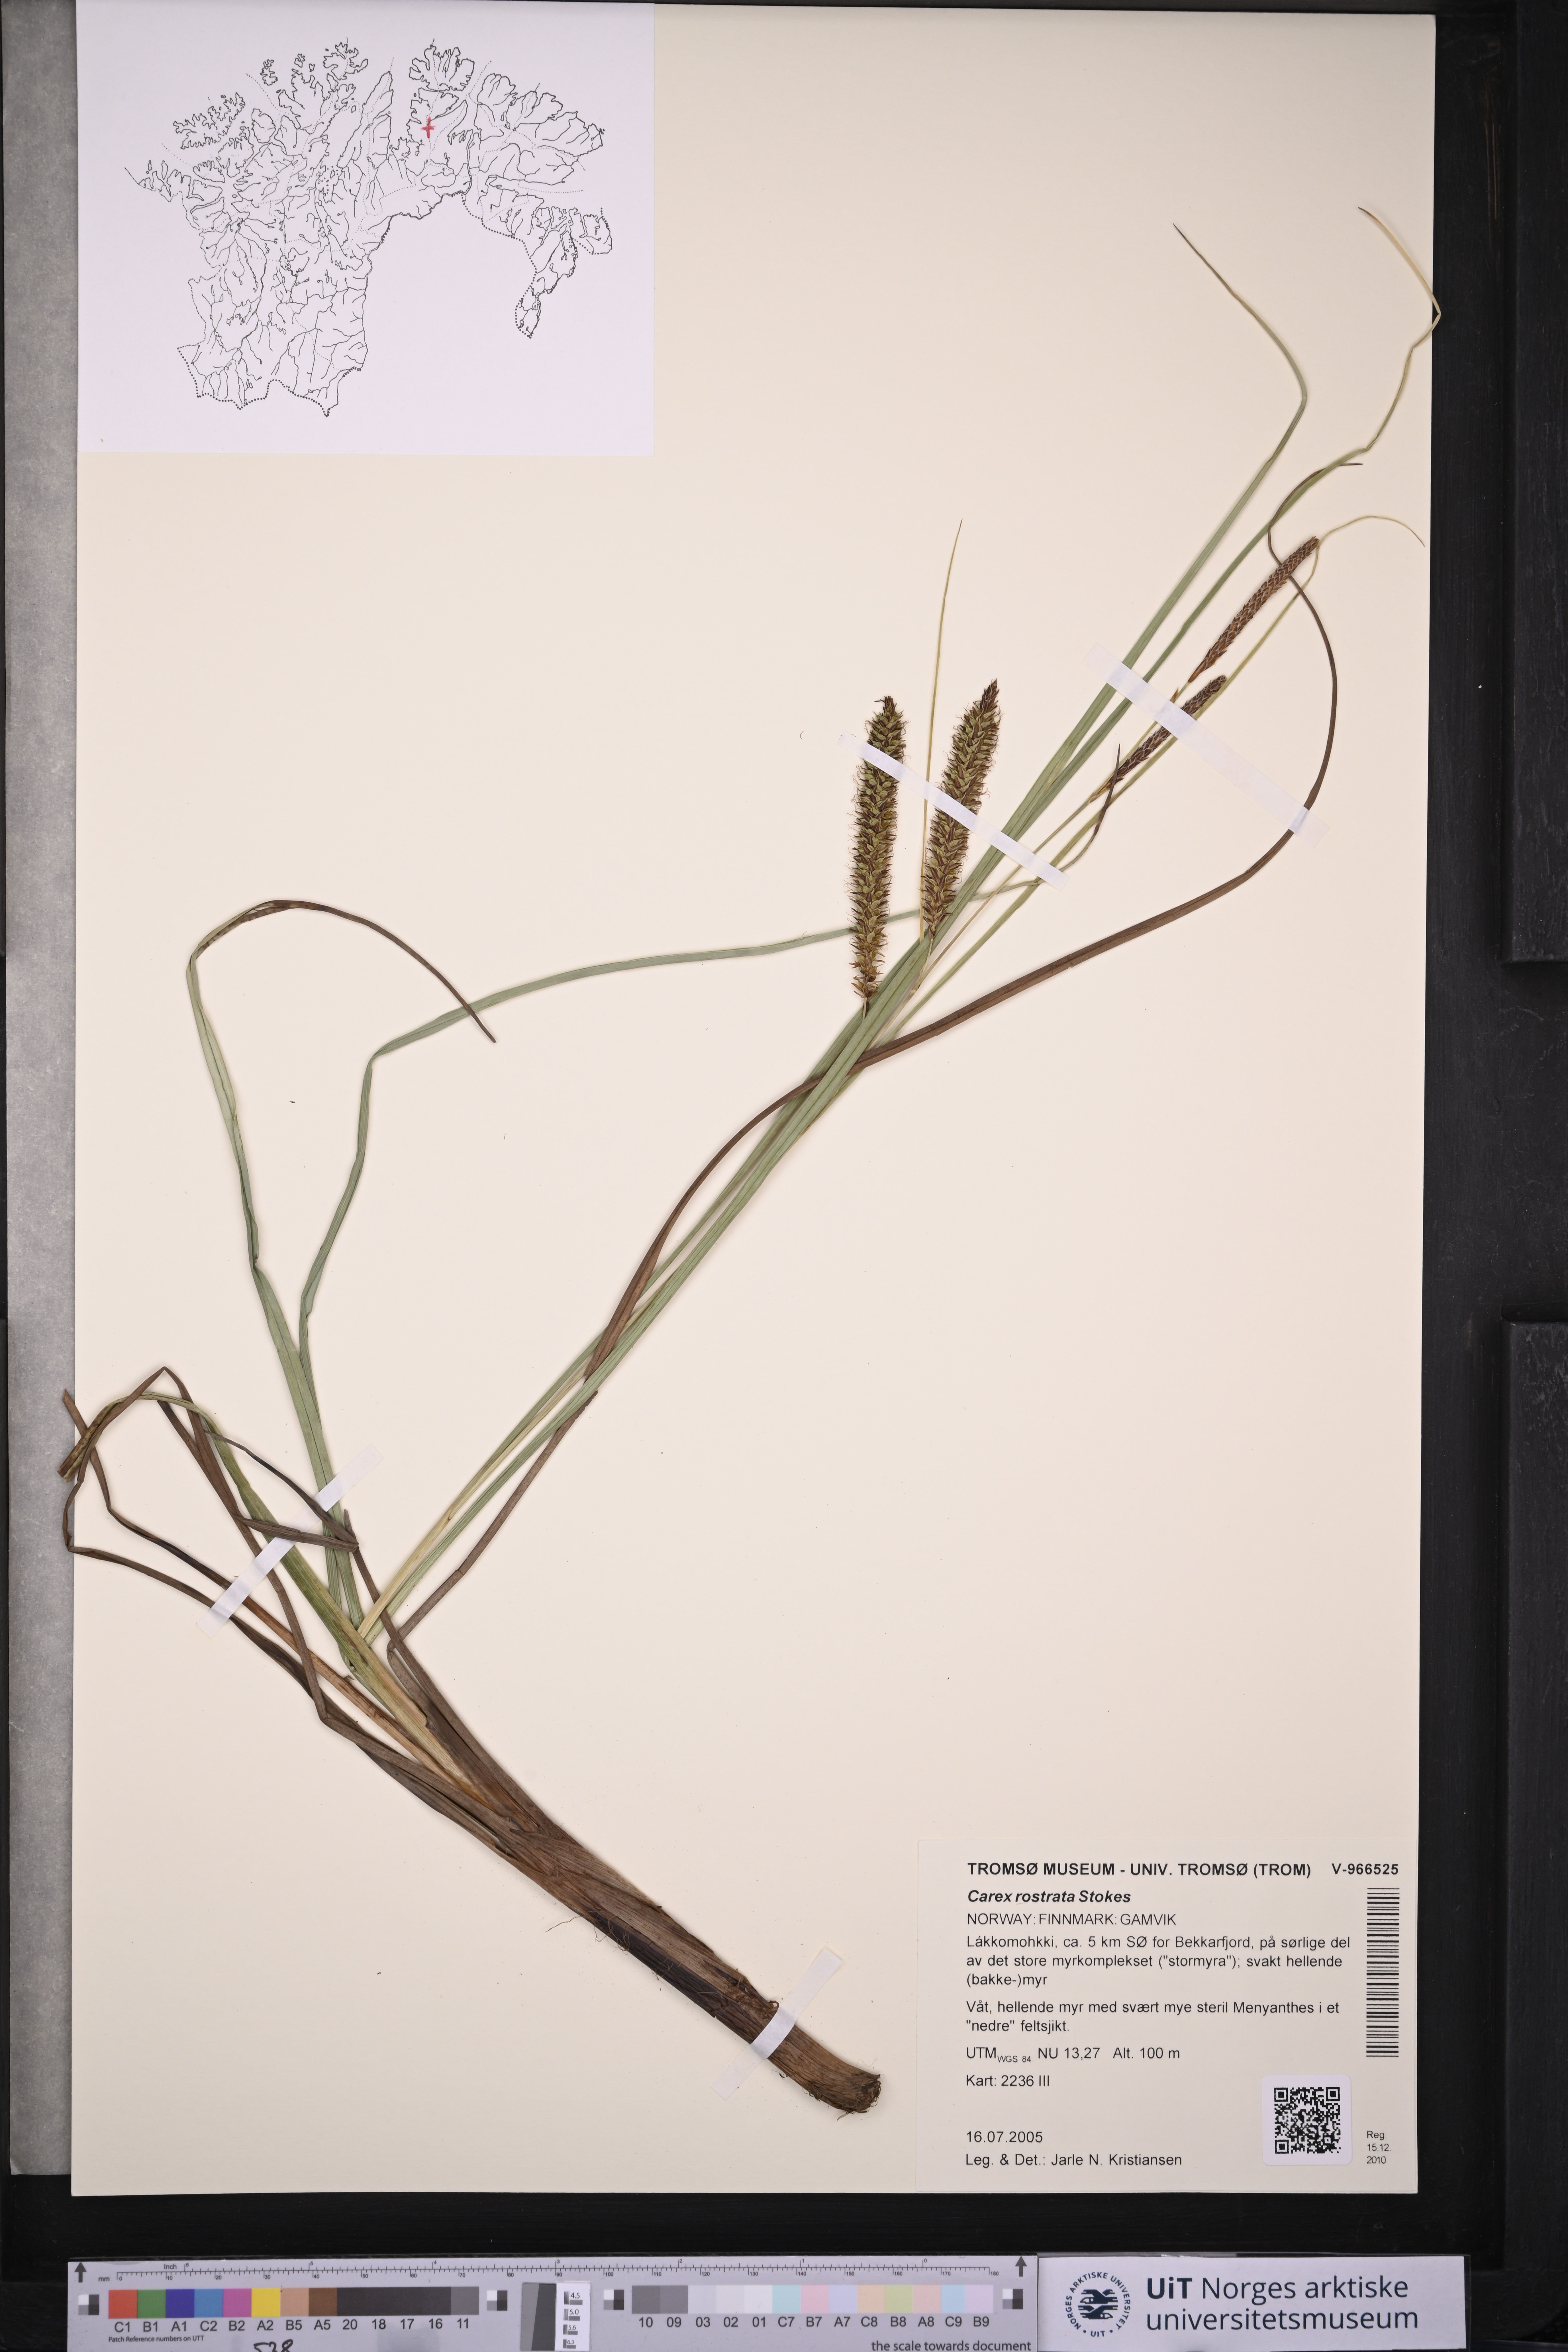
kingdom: Plantae
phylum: Tracheophyta
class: Liliopsida
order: Poales
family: Cyperaceae
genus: Carex
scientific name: Carex rostrata
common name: Bottle sedge
